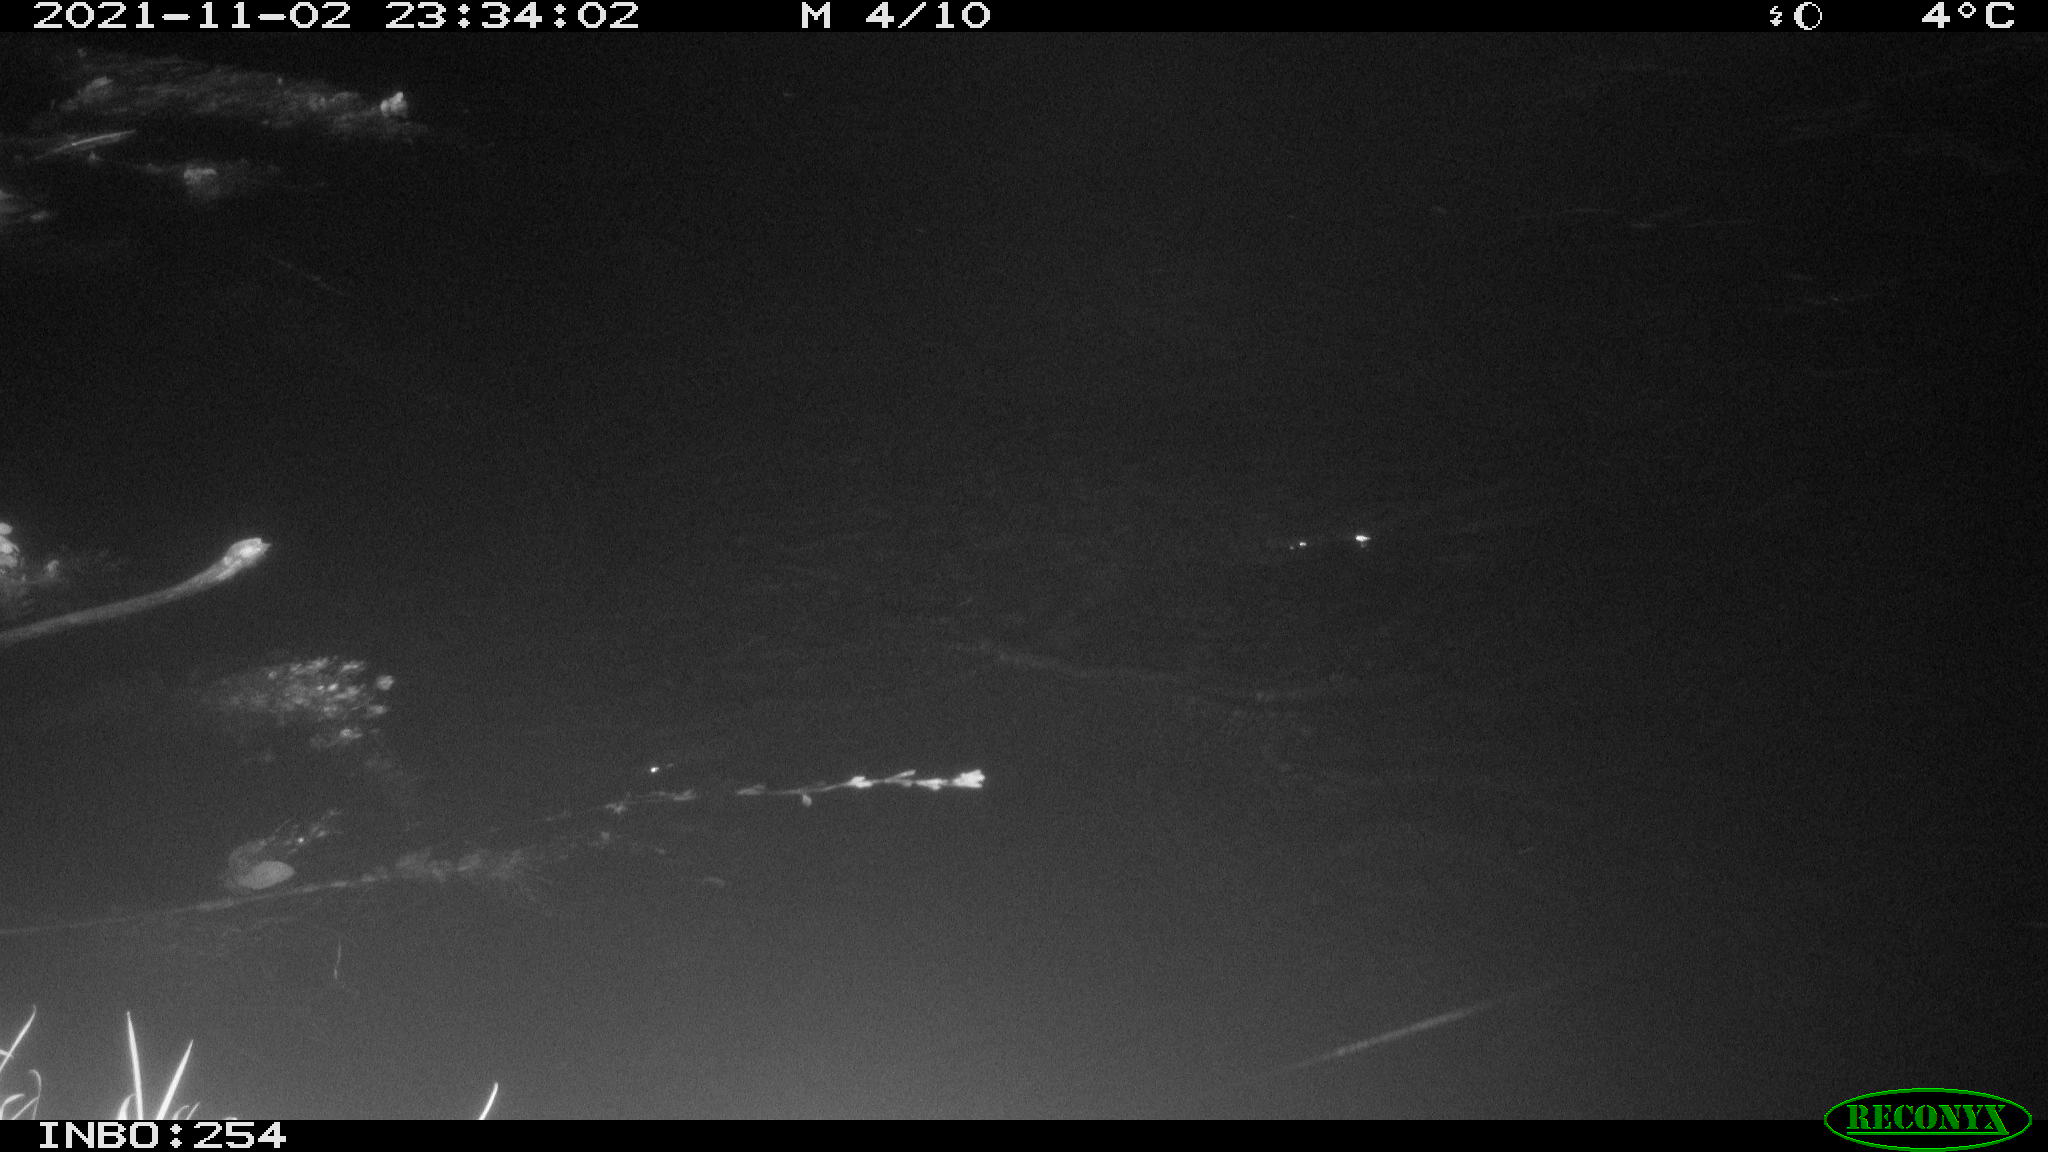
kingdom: Animalia
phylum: Chordata
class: Mammalia
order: Rodentia
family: Muridae
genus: Rattus
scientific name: Rattus norvegicus
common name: Brown rat
